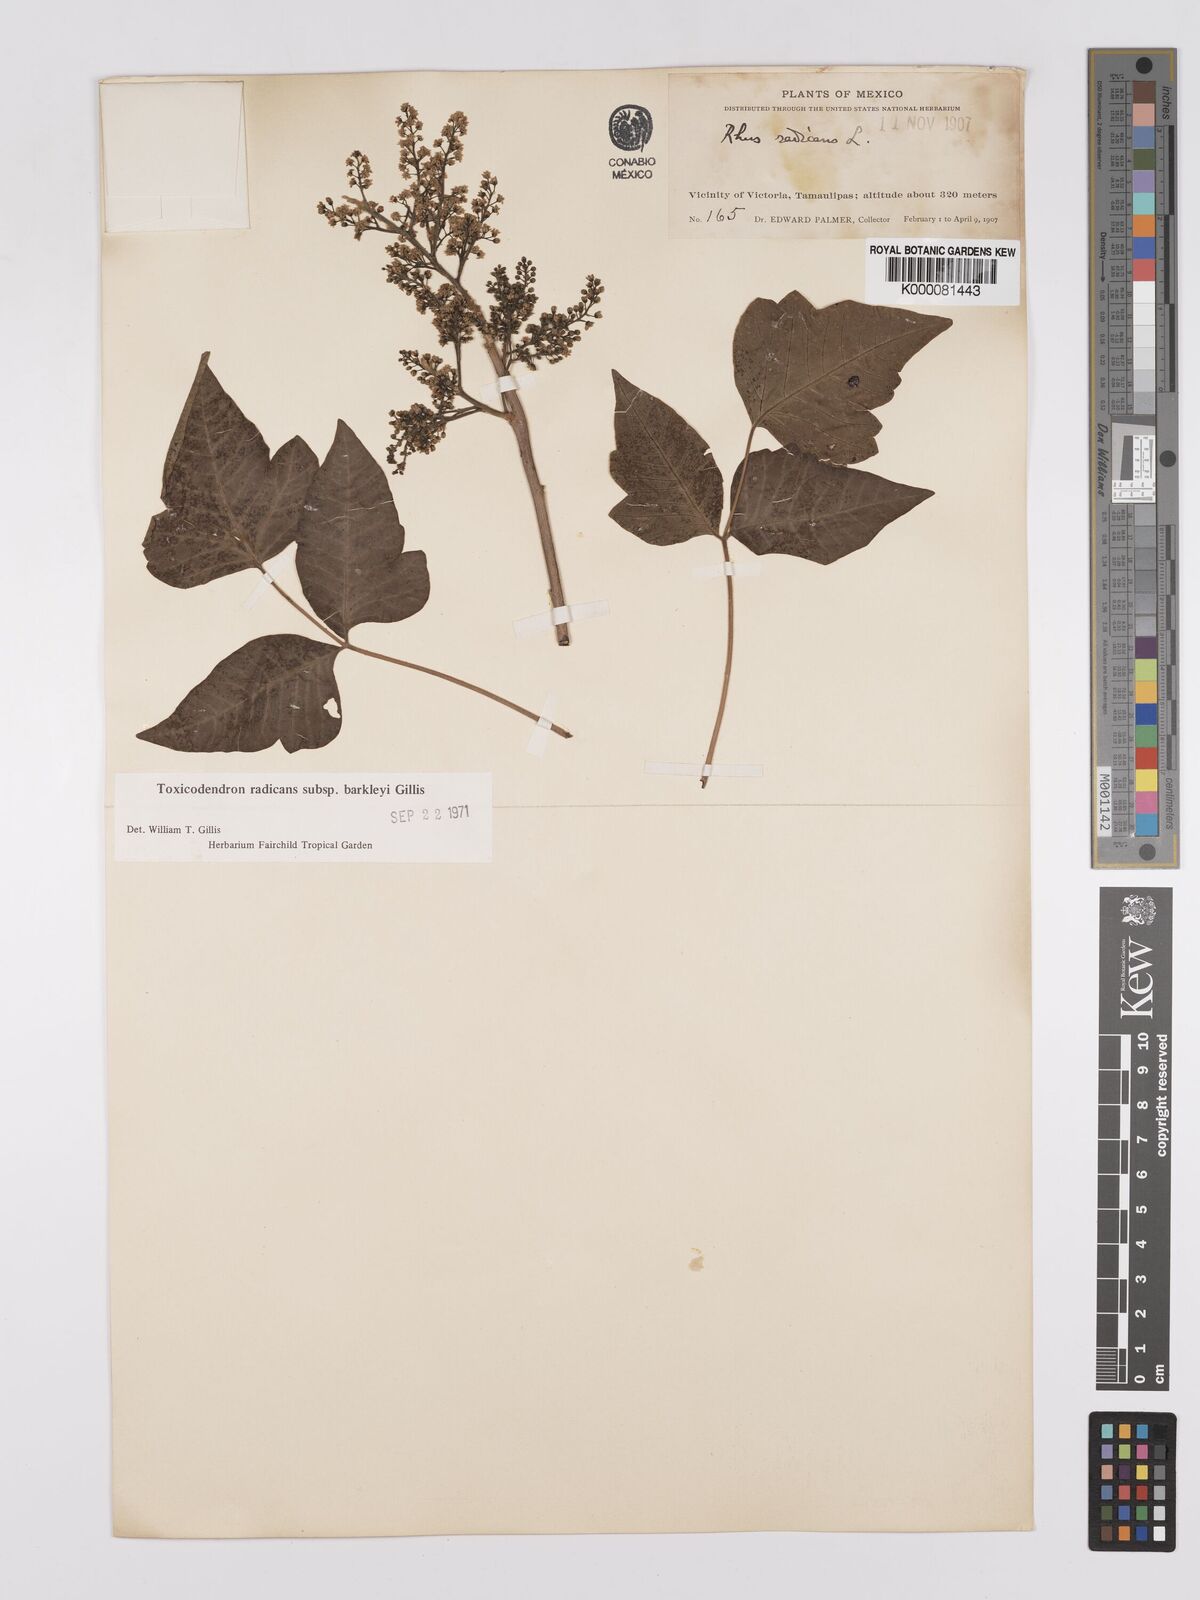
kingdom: Plantae
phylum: Tracheophyta
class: Magnoliopsida
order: Sapindales
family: Anacardiaceae
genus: Toxicodendron
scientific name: Toxicodendron radicans
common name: Poison ivy
